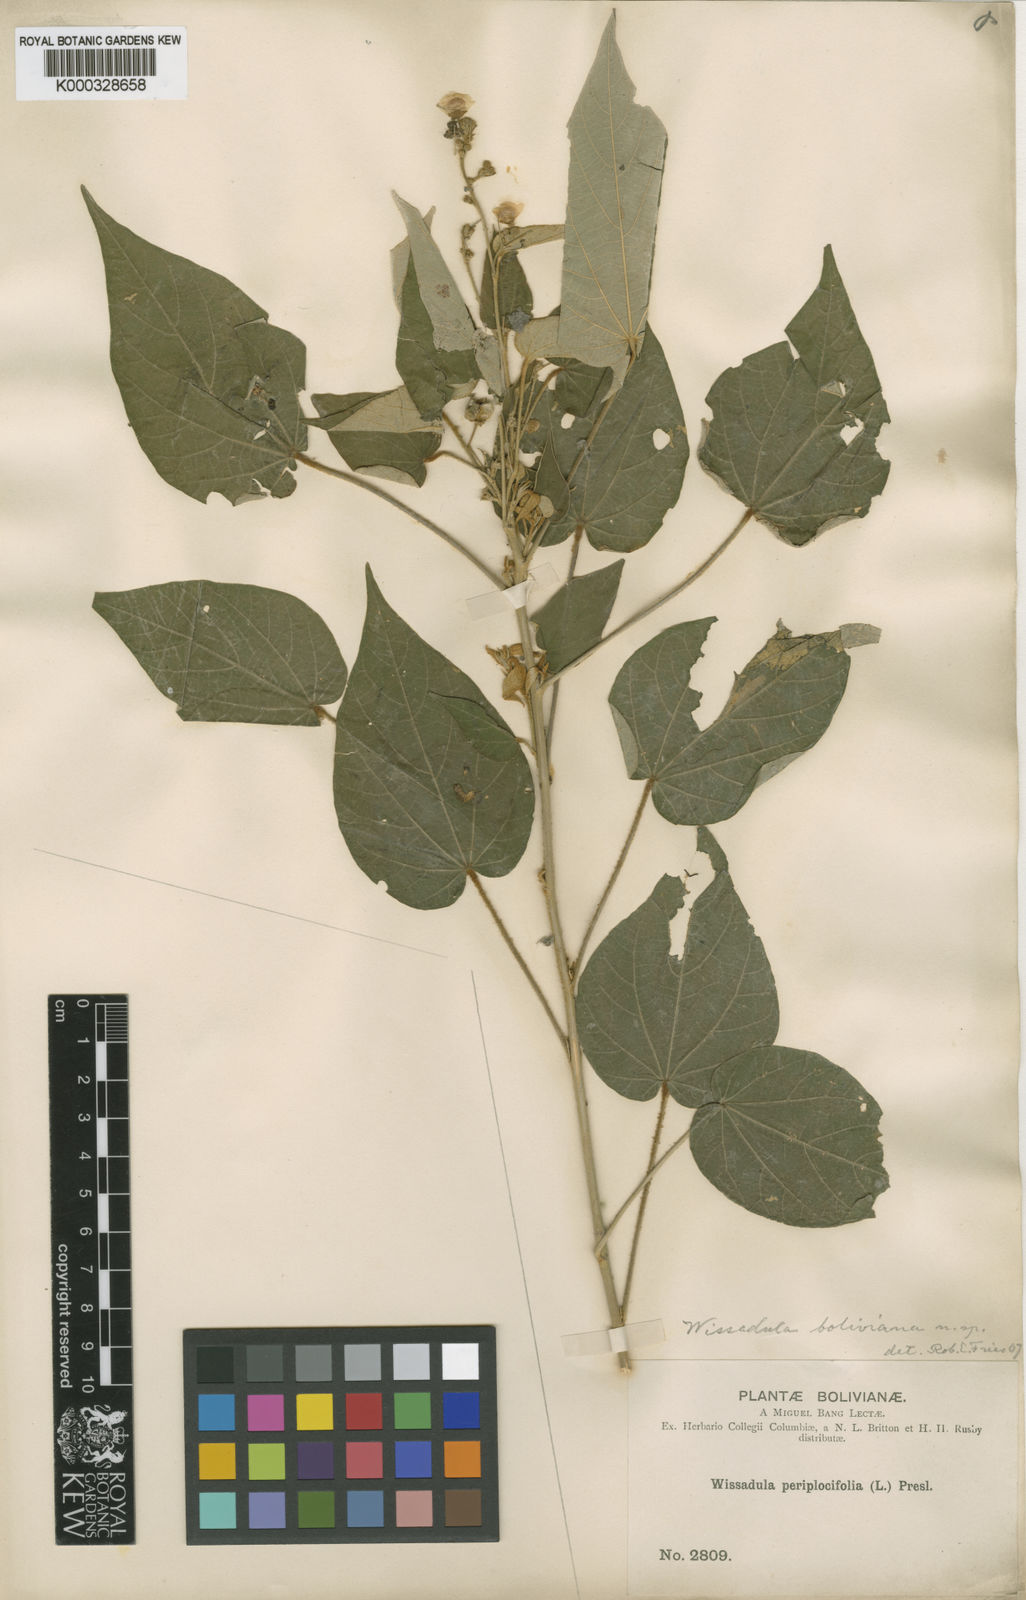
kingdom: Plantae
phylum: Tracheophyta
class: Magnoliopsida
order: Malvales
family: Malvaceae
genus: Wissadula
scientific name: Wissadula boliviana
